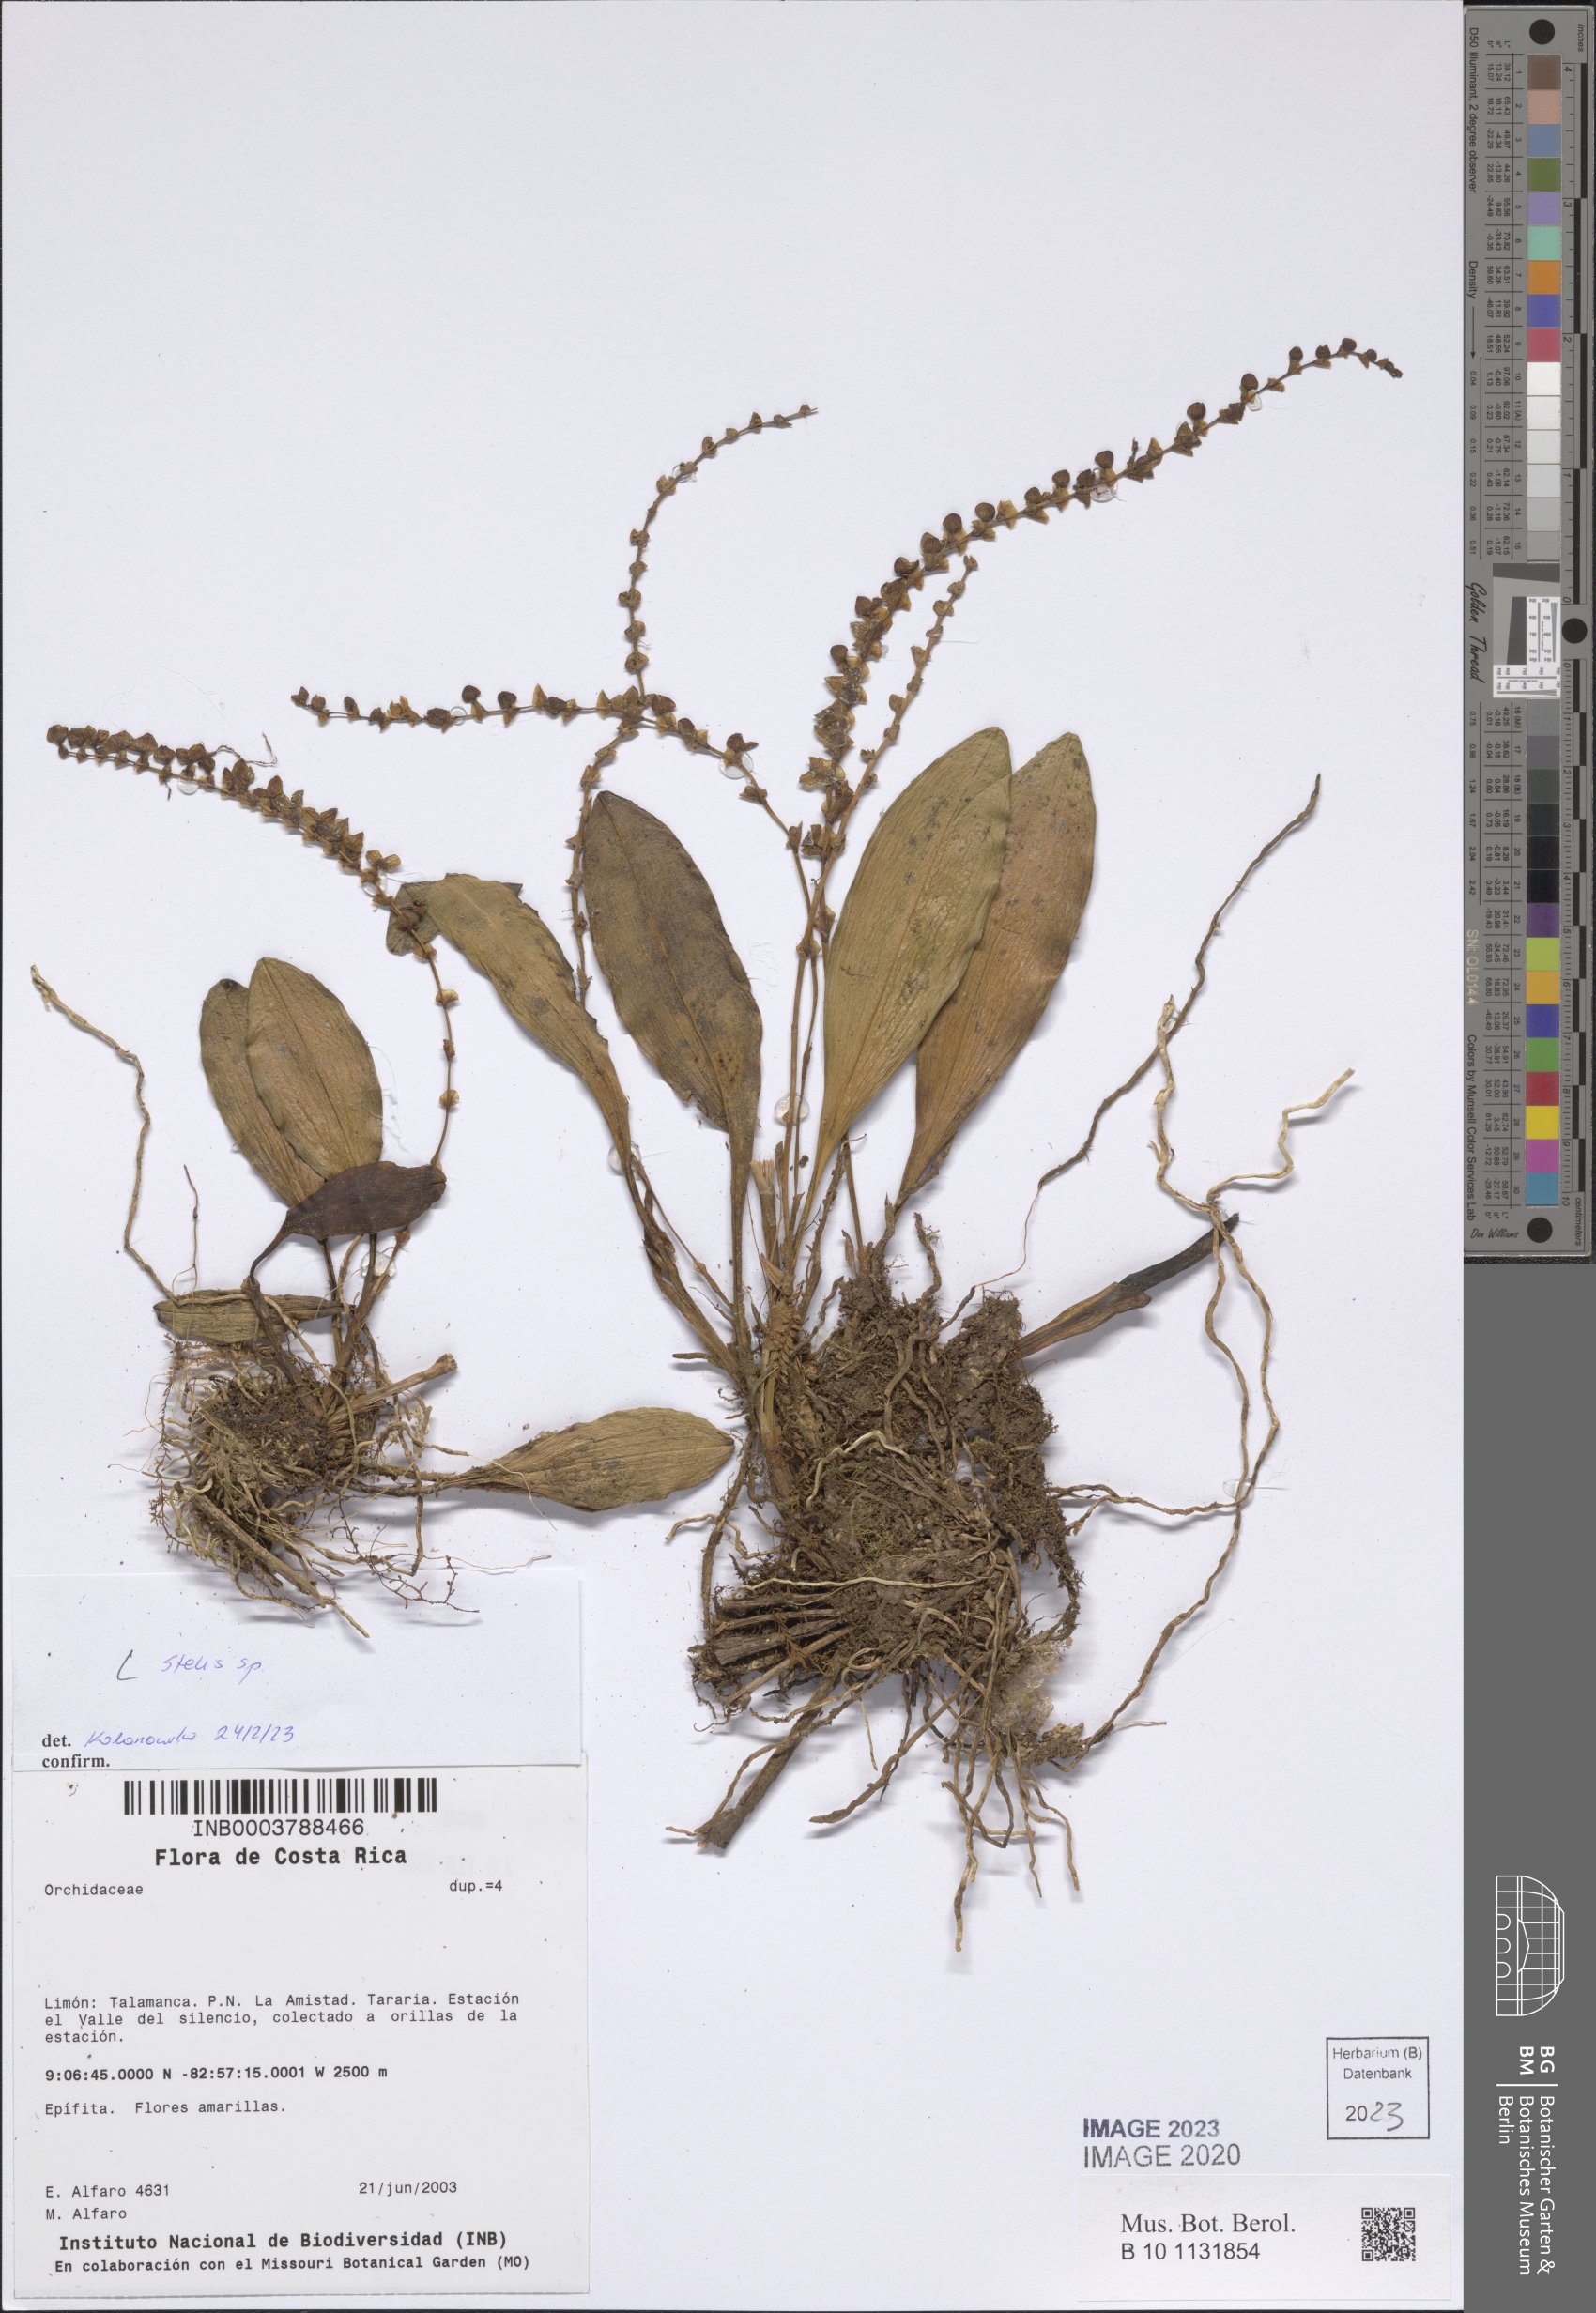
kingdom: Plantae
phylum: Tracheophyta
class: Liliopsida
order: Asparagales
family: Orchidaceae
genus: Stelis
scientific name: Stelis
